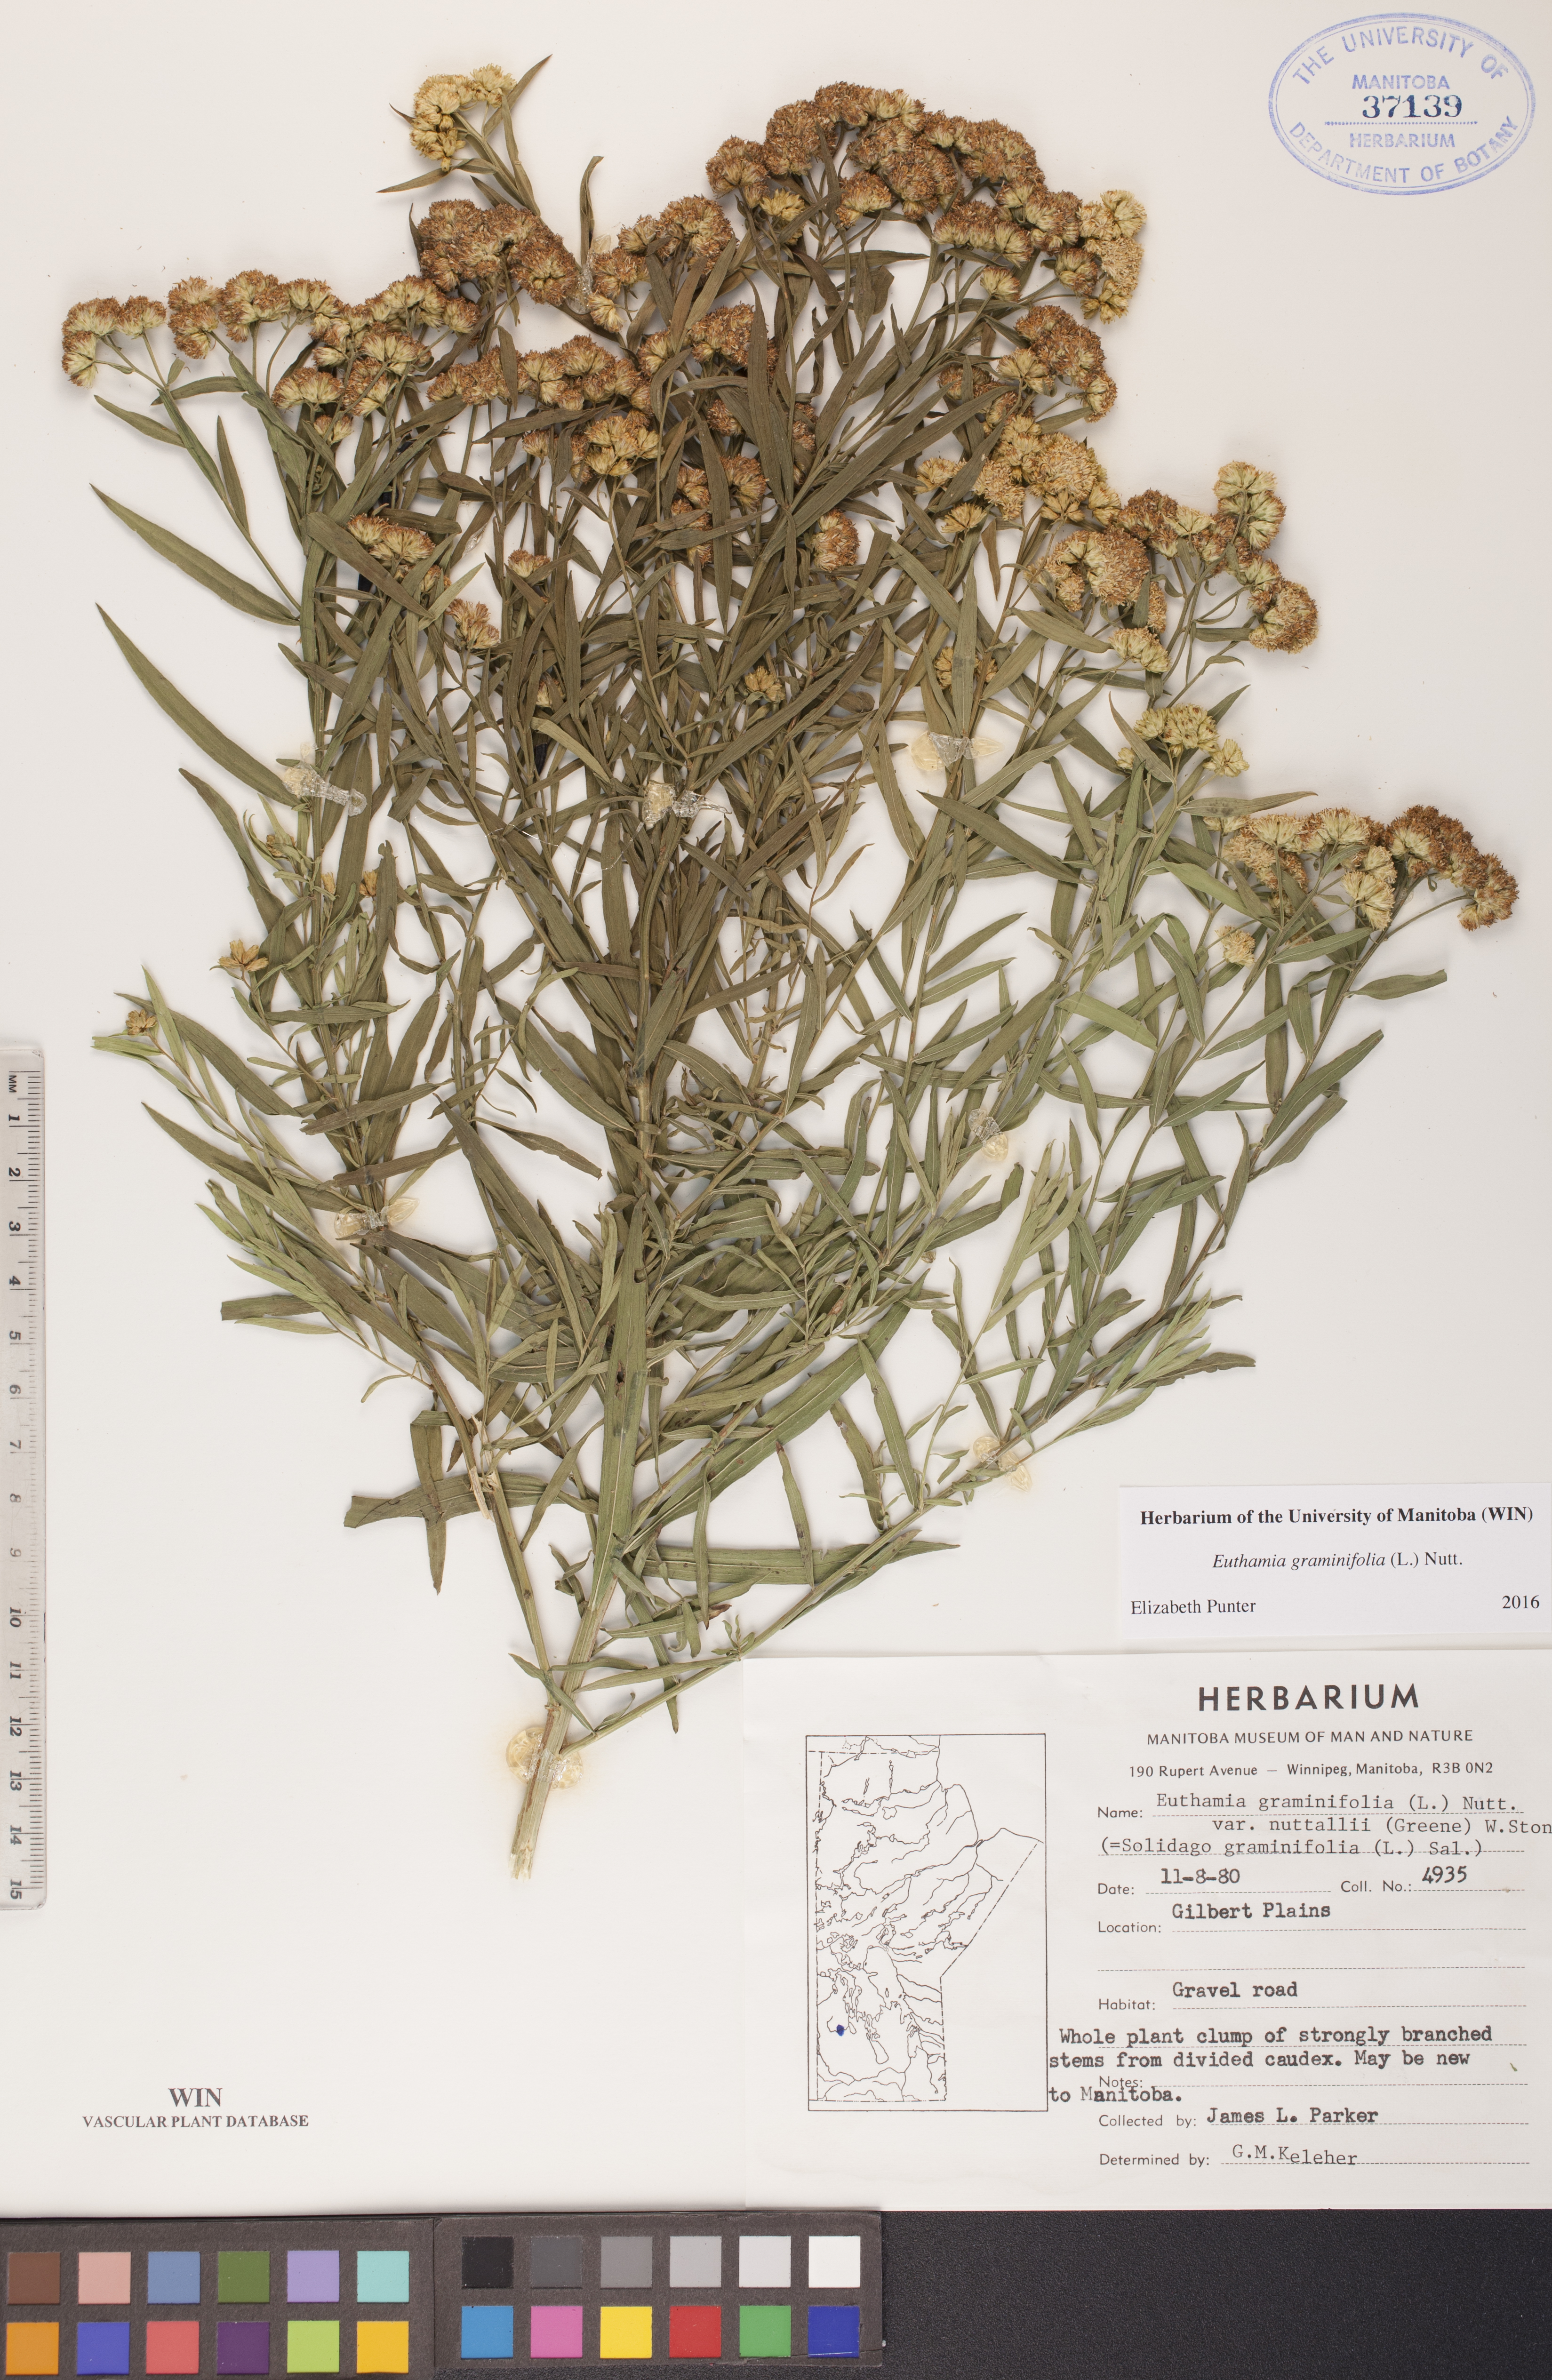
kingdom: Plantae
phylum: Tracheophyta
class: Magnoliopsida
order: Asterales
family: Asteraceae
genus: Euthamia
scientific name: Euthamia graminifolia
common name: Common goldentop
